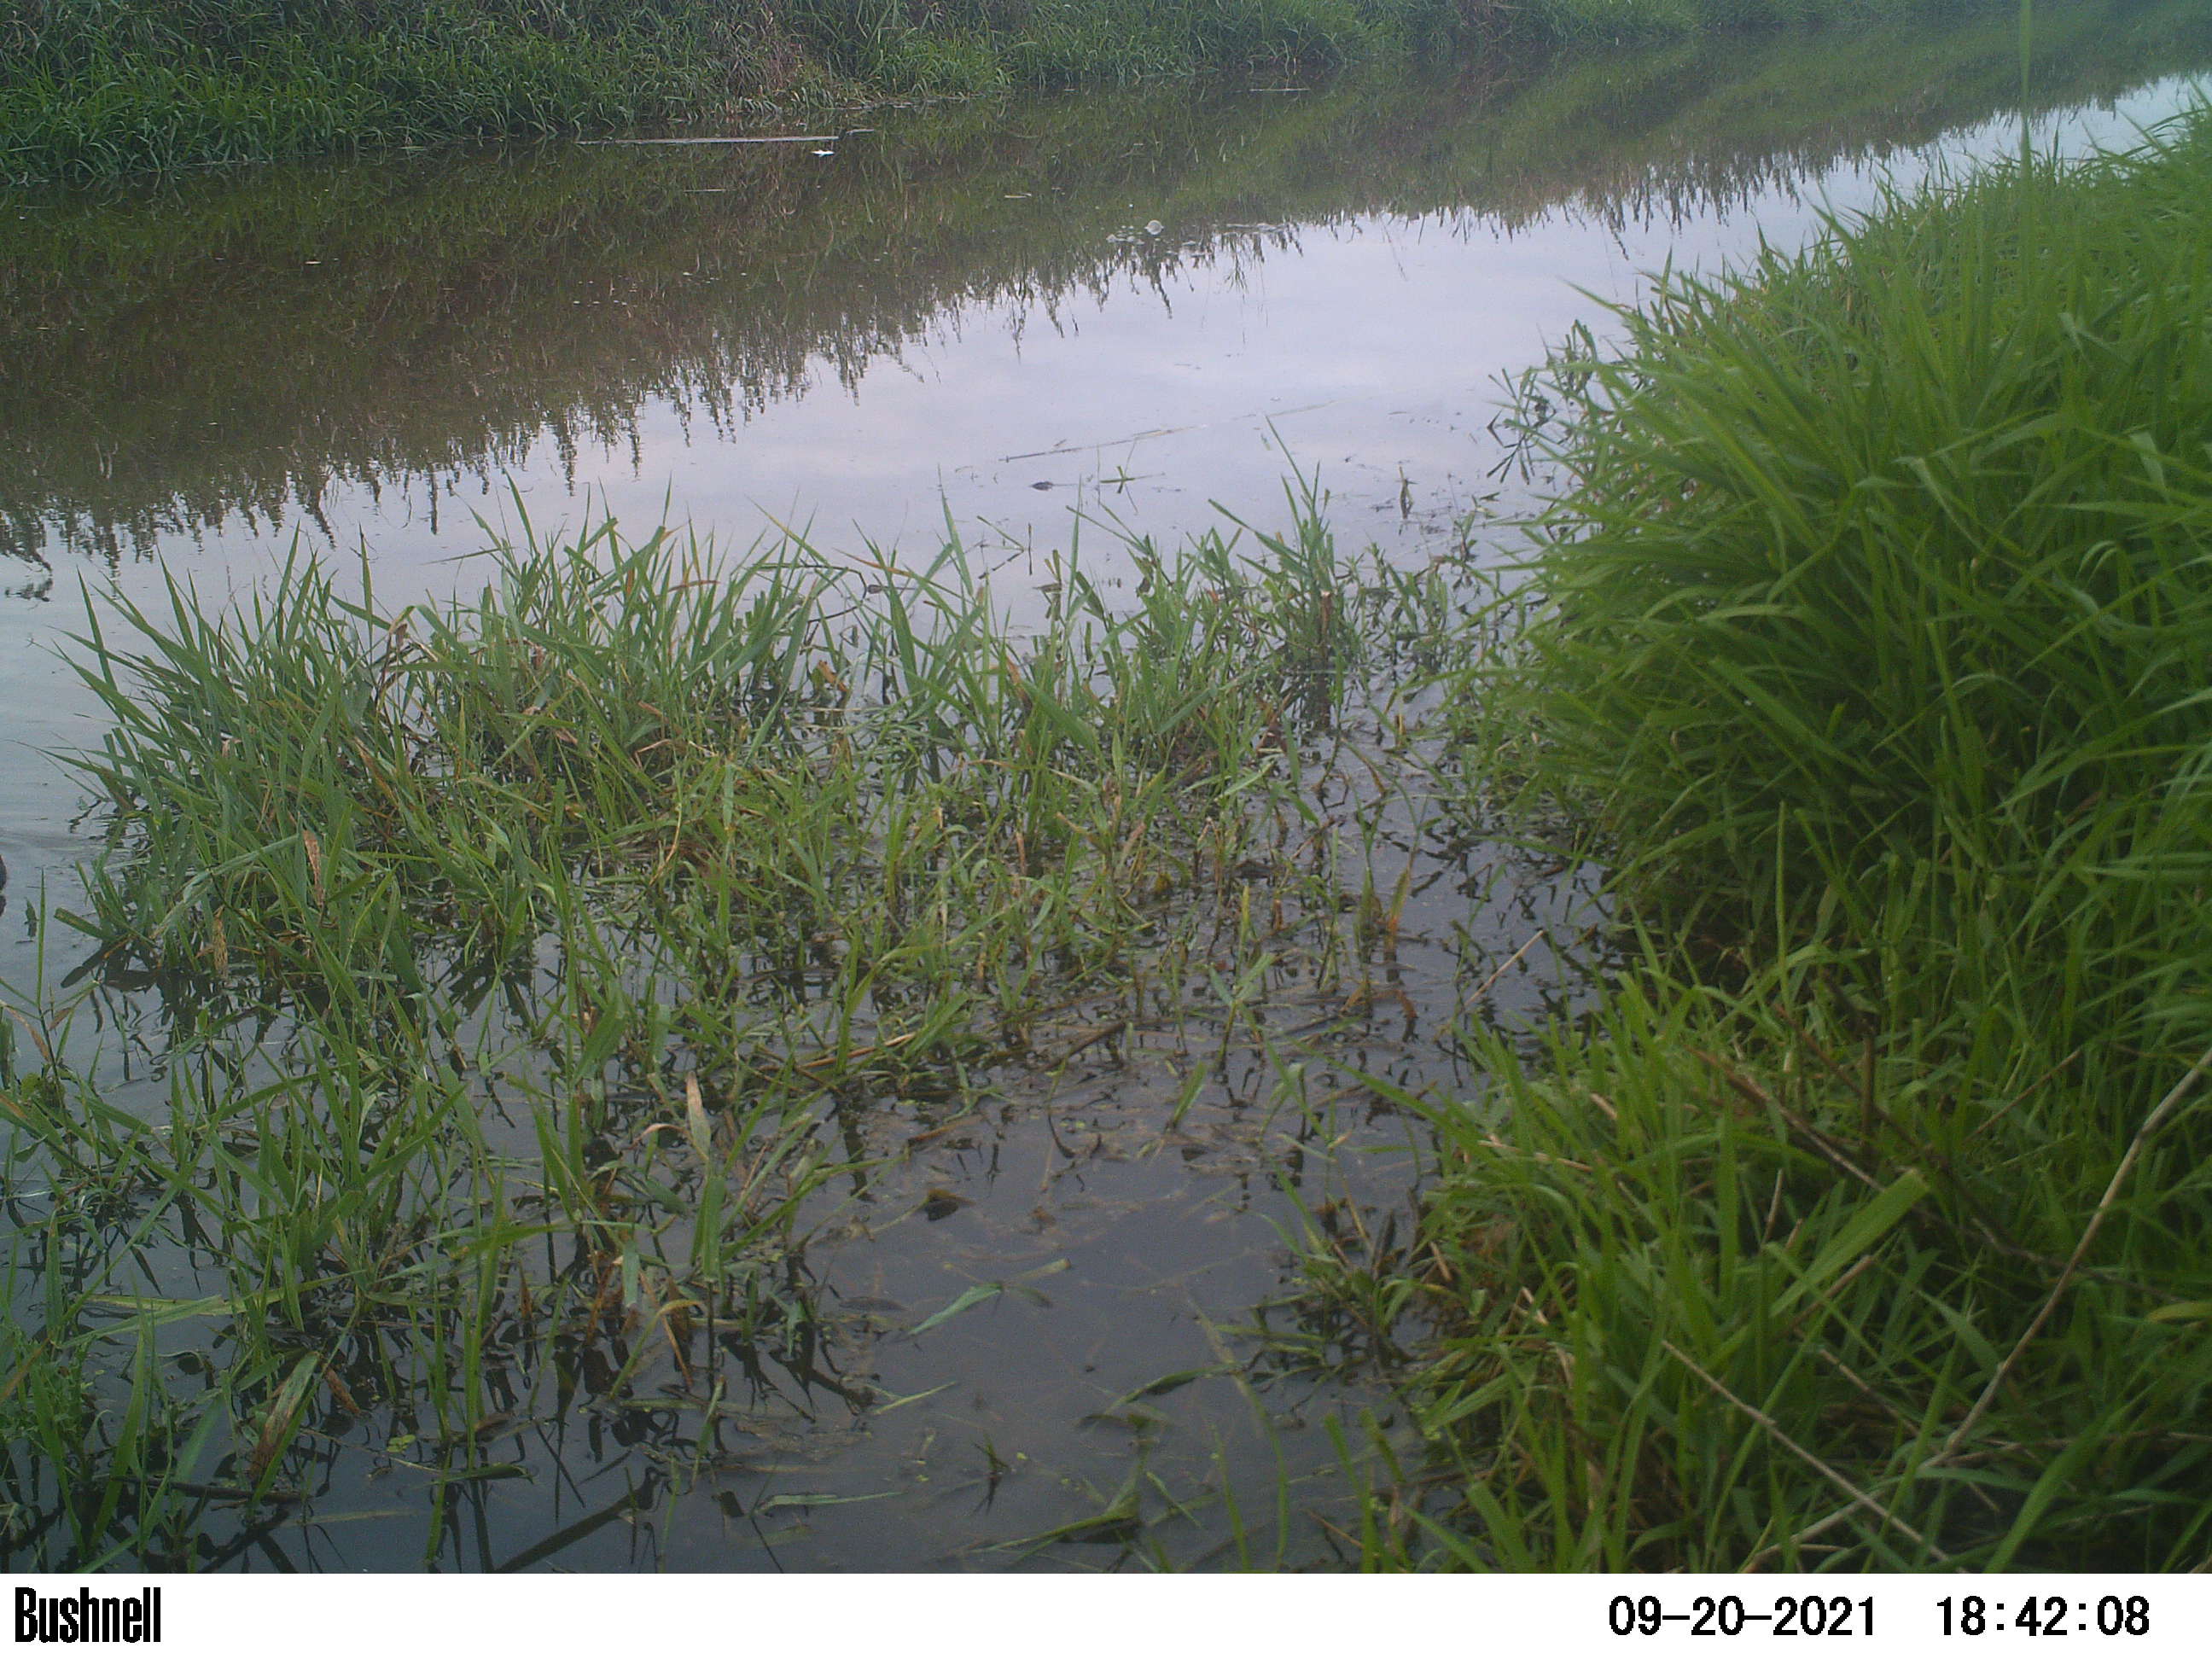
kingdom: Animalia
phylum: Chordata
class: Aves
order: Gruiformes
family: Rallidae
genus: Fulica
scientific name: Fulica atra
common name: Eurasian coot
